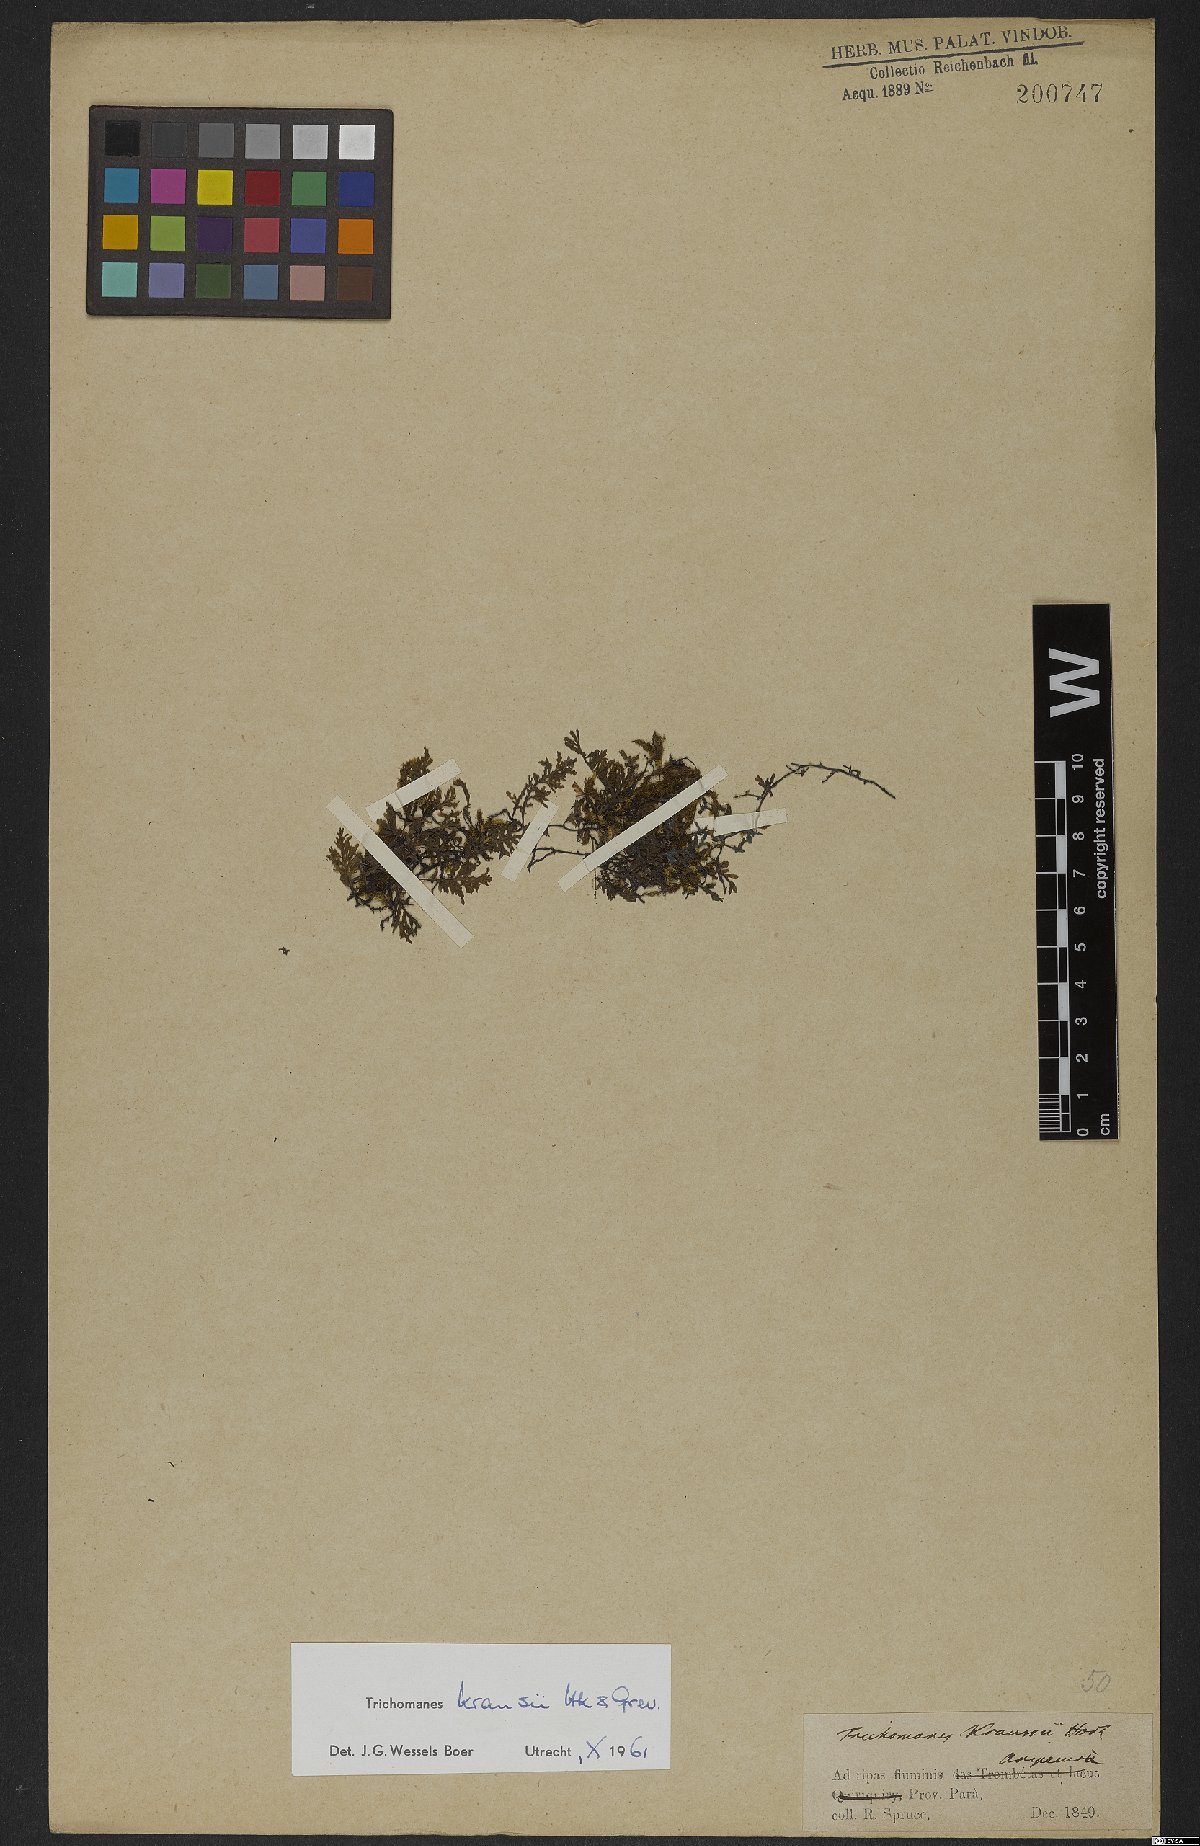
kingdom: Plantae
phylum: Tracheophyta
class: Polypodiopsida
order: Hymenophyllales
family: Hymenophyllaceae
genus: Didymoglossum
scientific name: Didymoglossum kraussii
